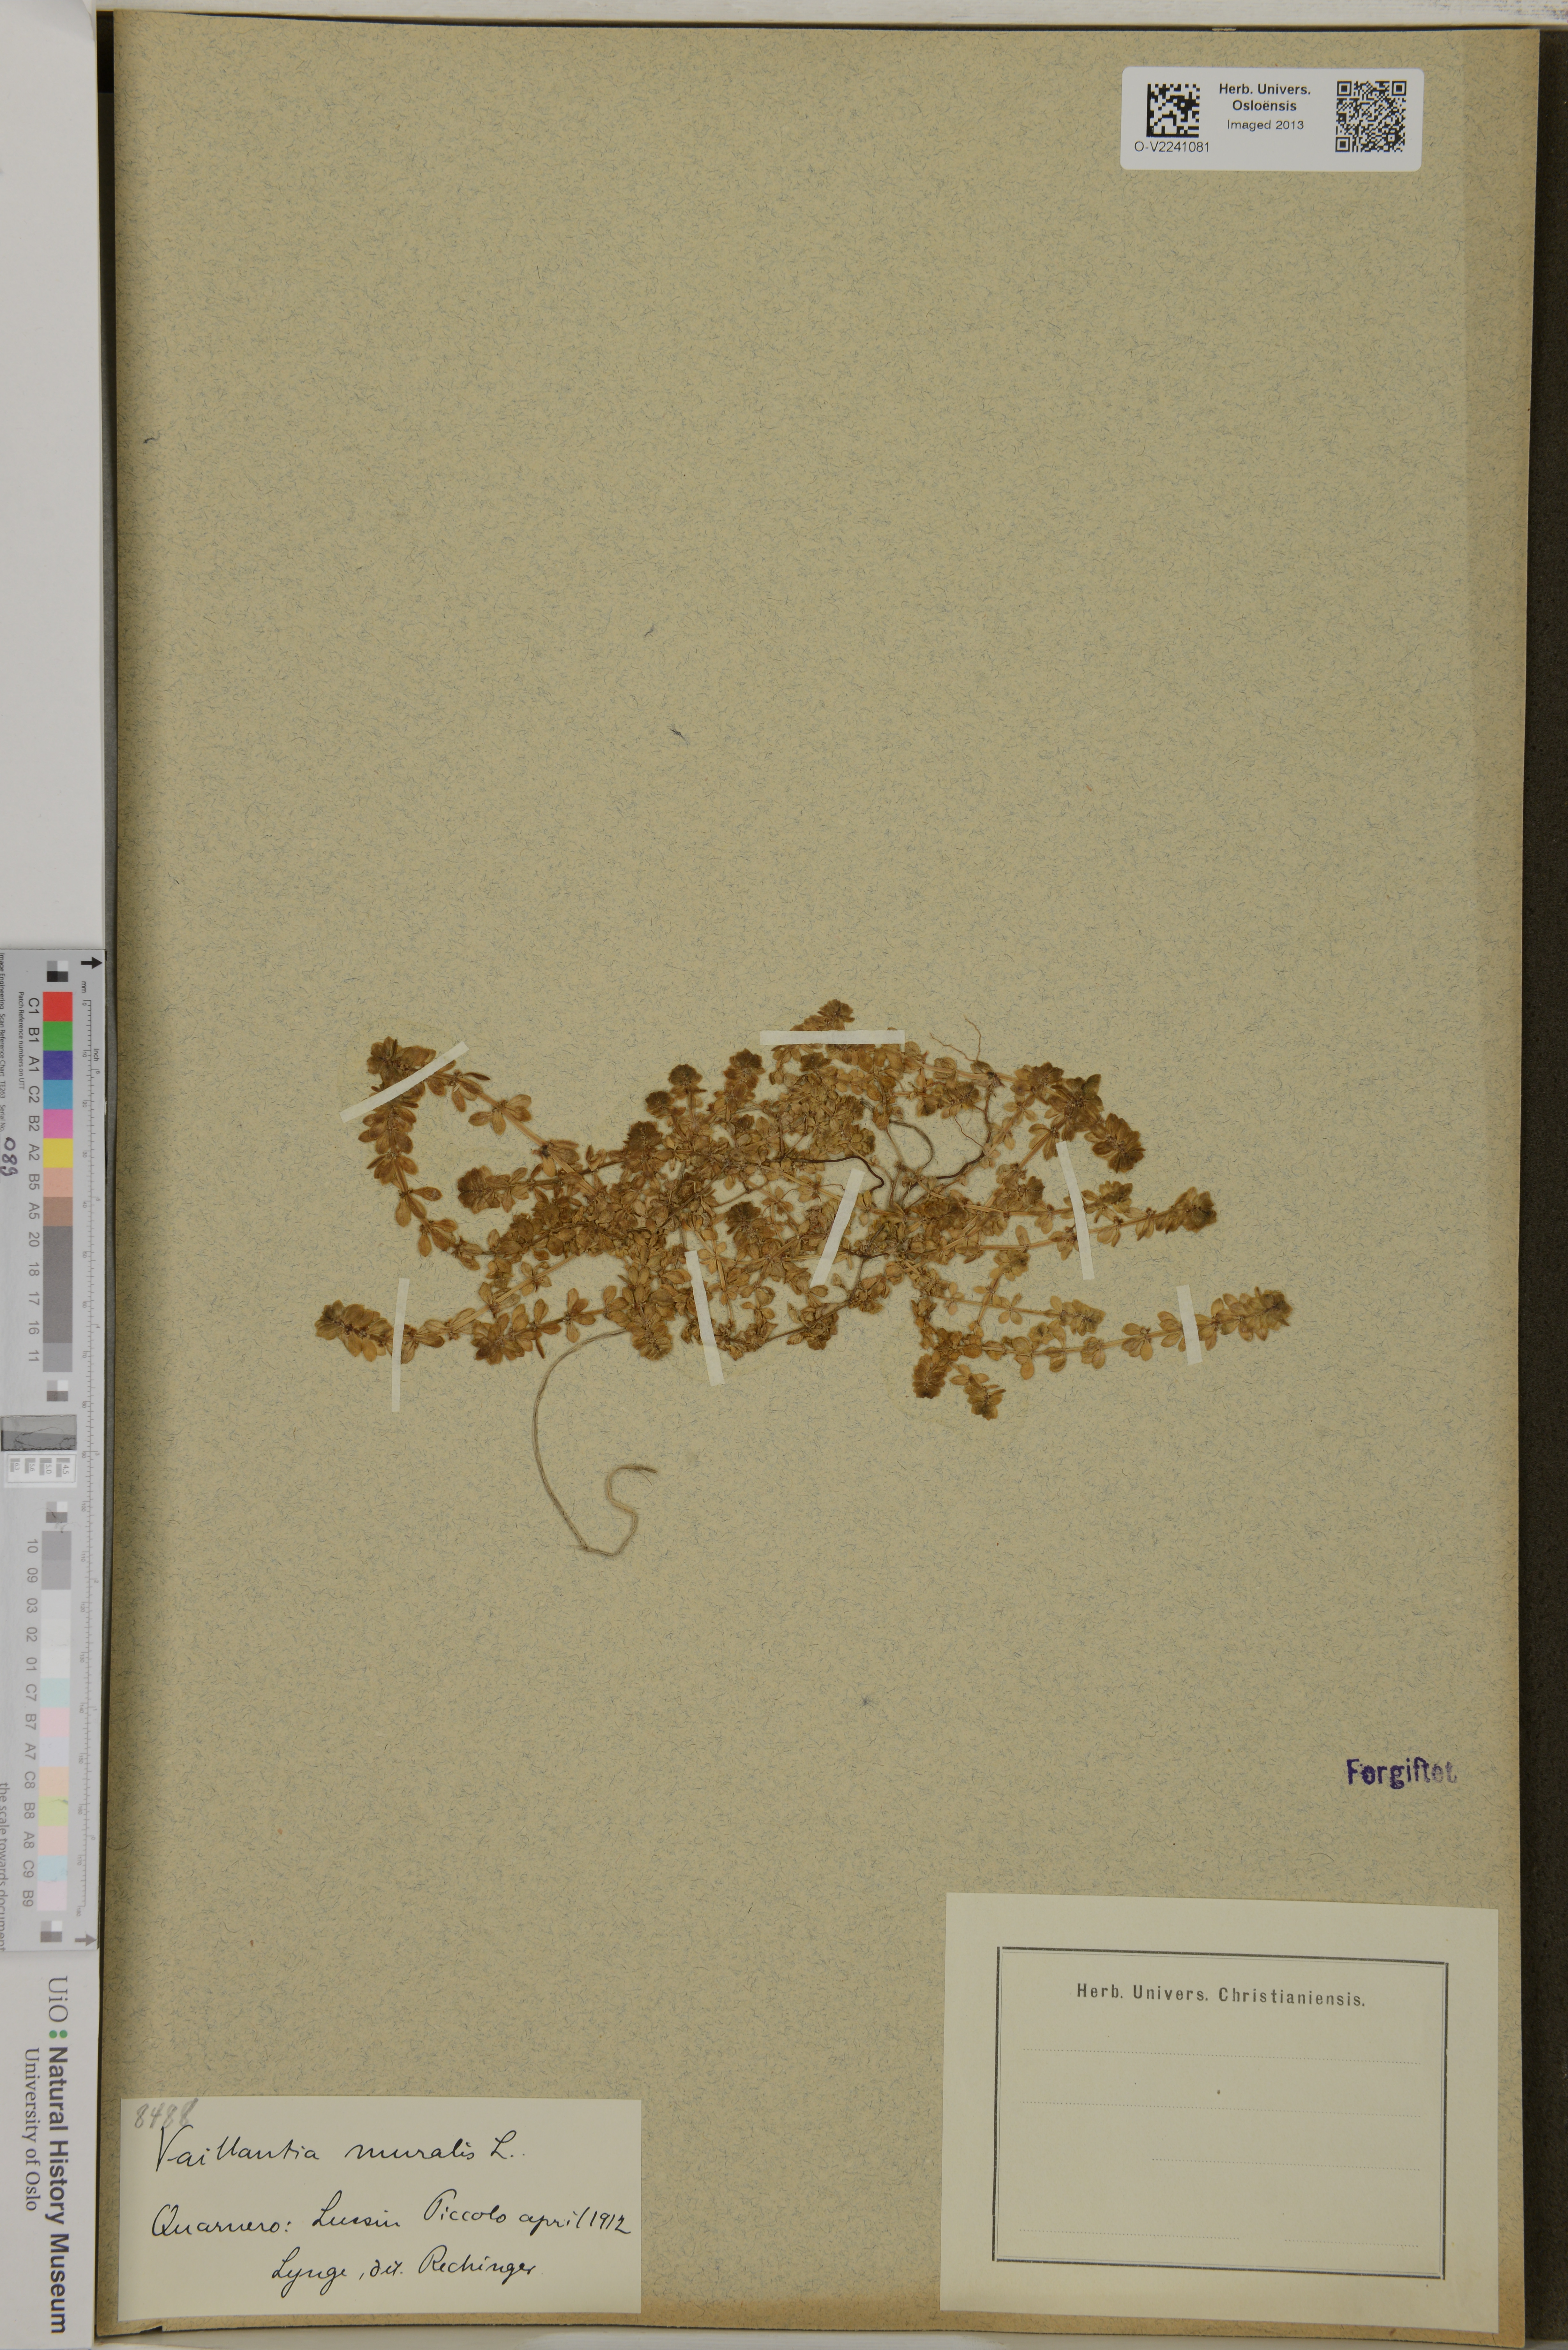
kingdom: Plantae
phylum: Tracheophyta
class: Magnoliopsida
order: Gentianales
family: Rubiaceae
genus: Valantia
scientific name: Valantia muralis
